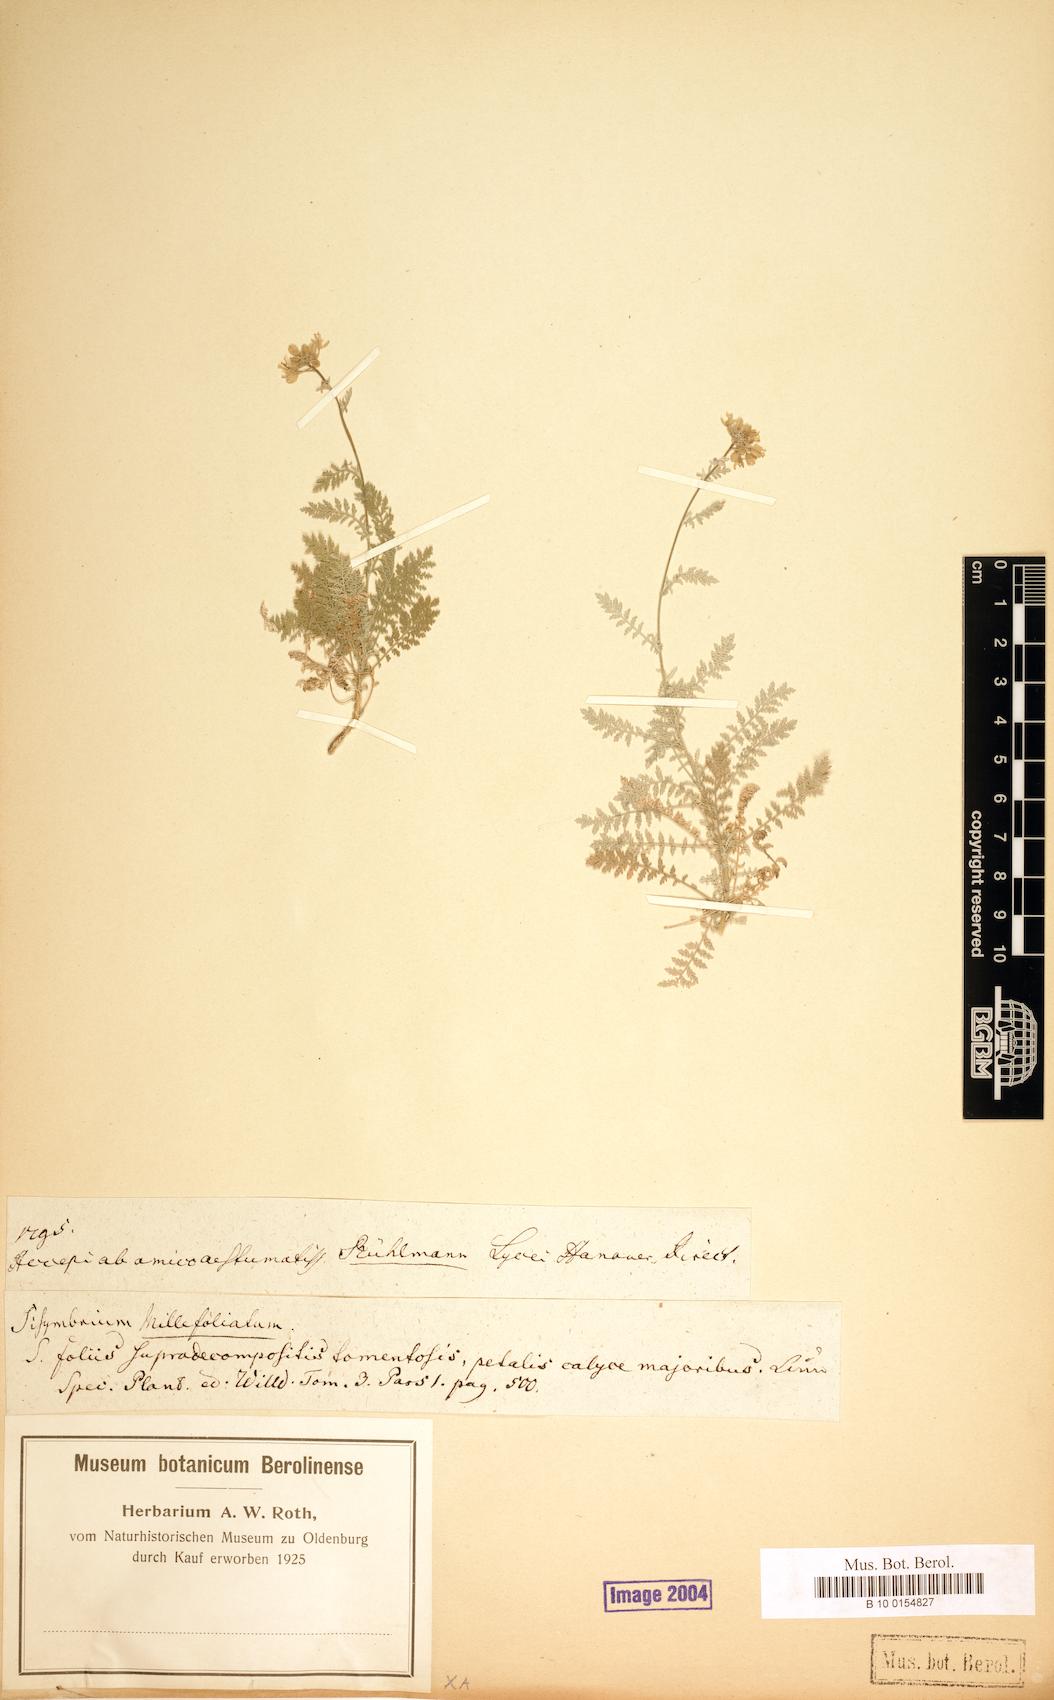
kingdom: Plantae
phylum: Tracheophyta
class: Magnoliopsida
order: Brassicales
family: Brassicaceae
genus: Descurainia
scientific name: Descurainia millefolia
